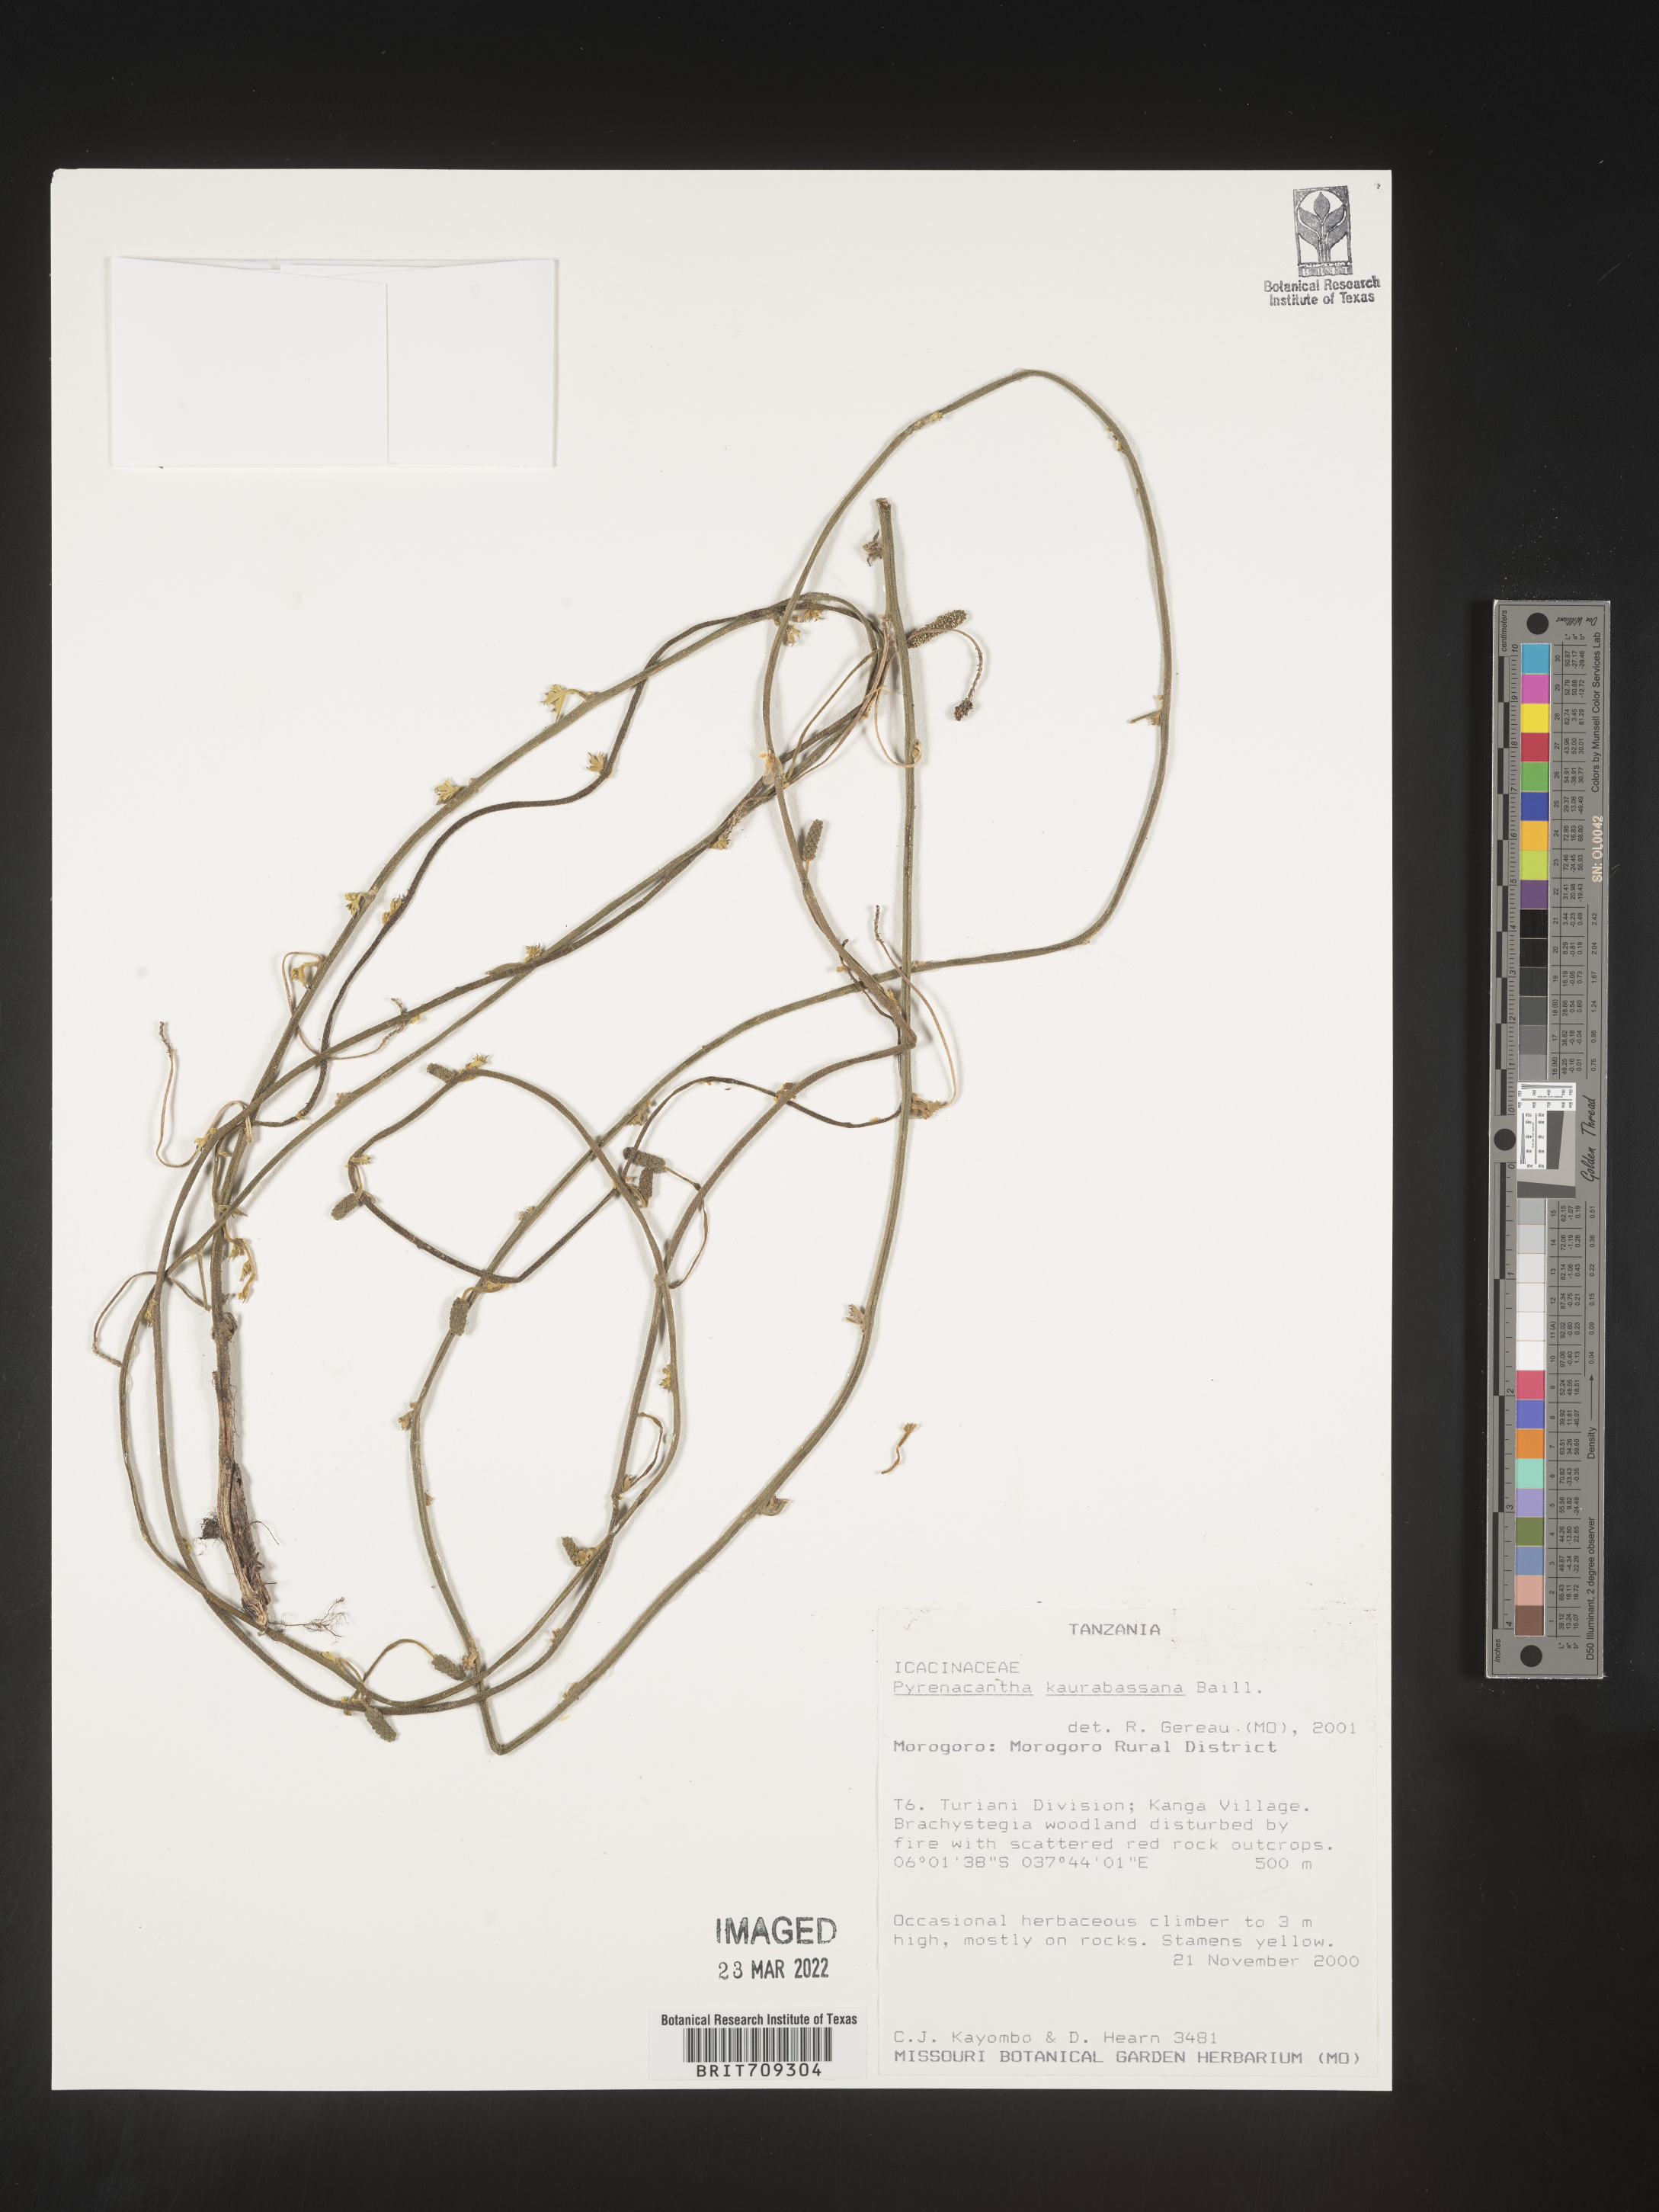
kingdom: Plantae
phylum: Tracheophyta
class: Magnoliopsida
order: Icacinales
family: Icacinaceae
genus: Pyrenacantha
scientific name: Pyrenacantha
